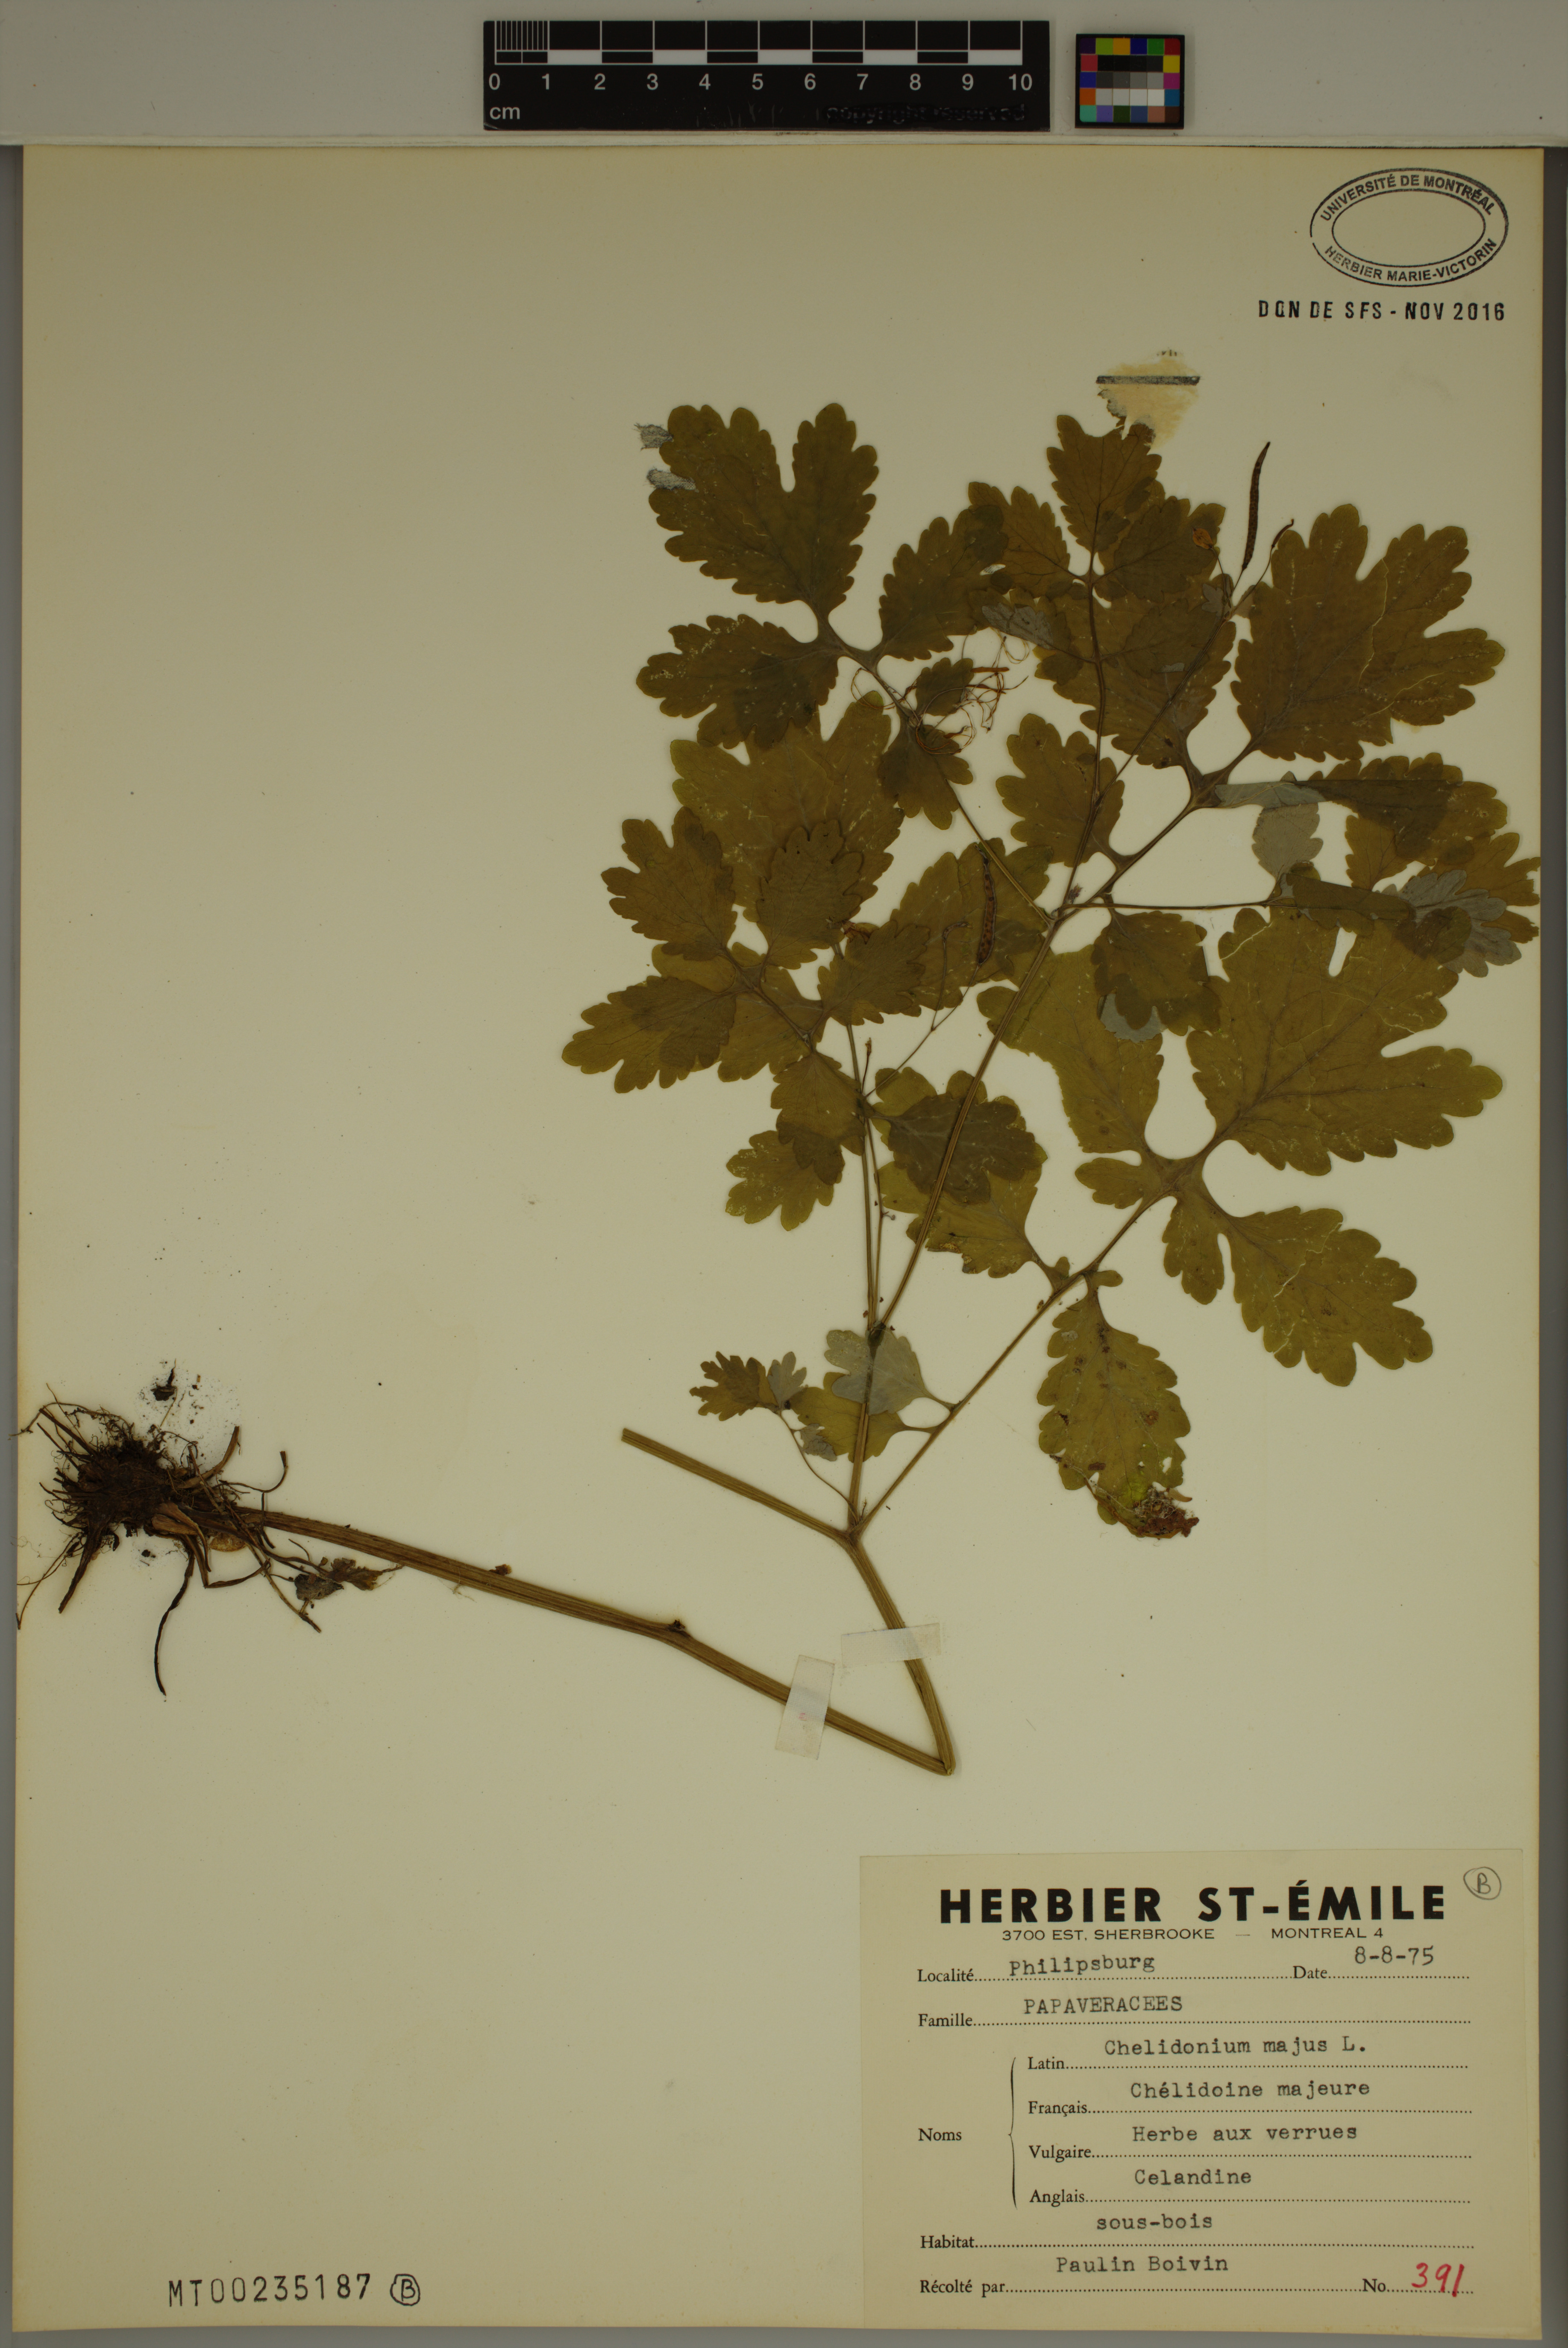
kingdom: Plantae
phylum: Tracheophyta
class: Magnoliopsida
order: Ranunculales
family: Papaveraceae
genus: Chelidonium
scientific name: Chelidonium majus
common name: Greater celandine
